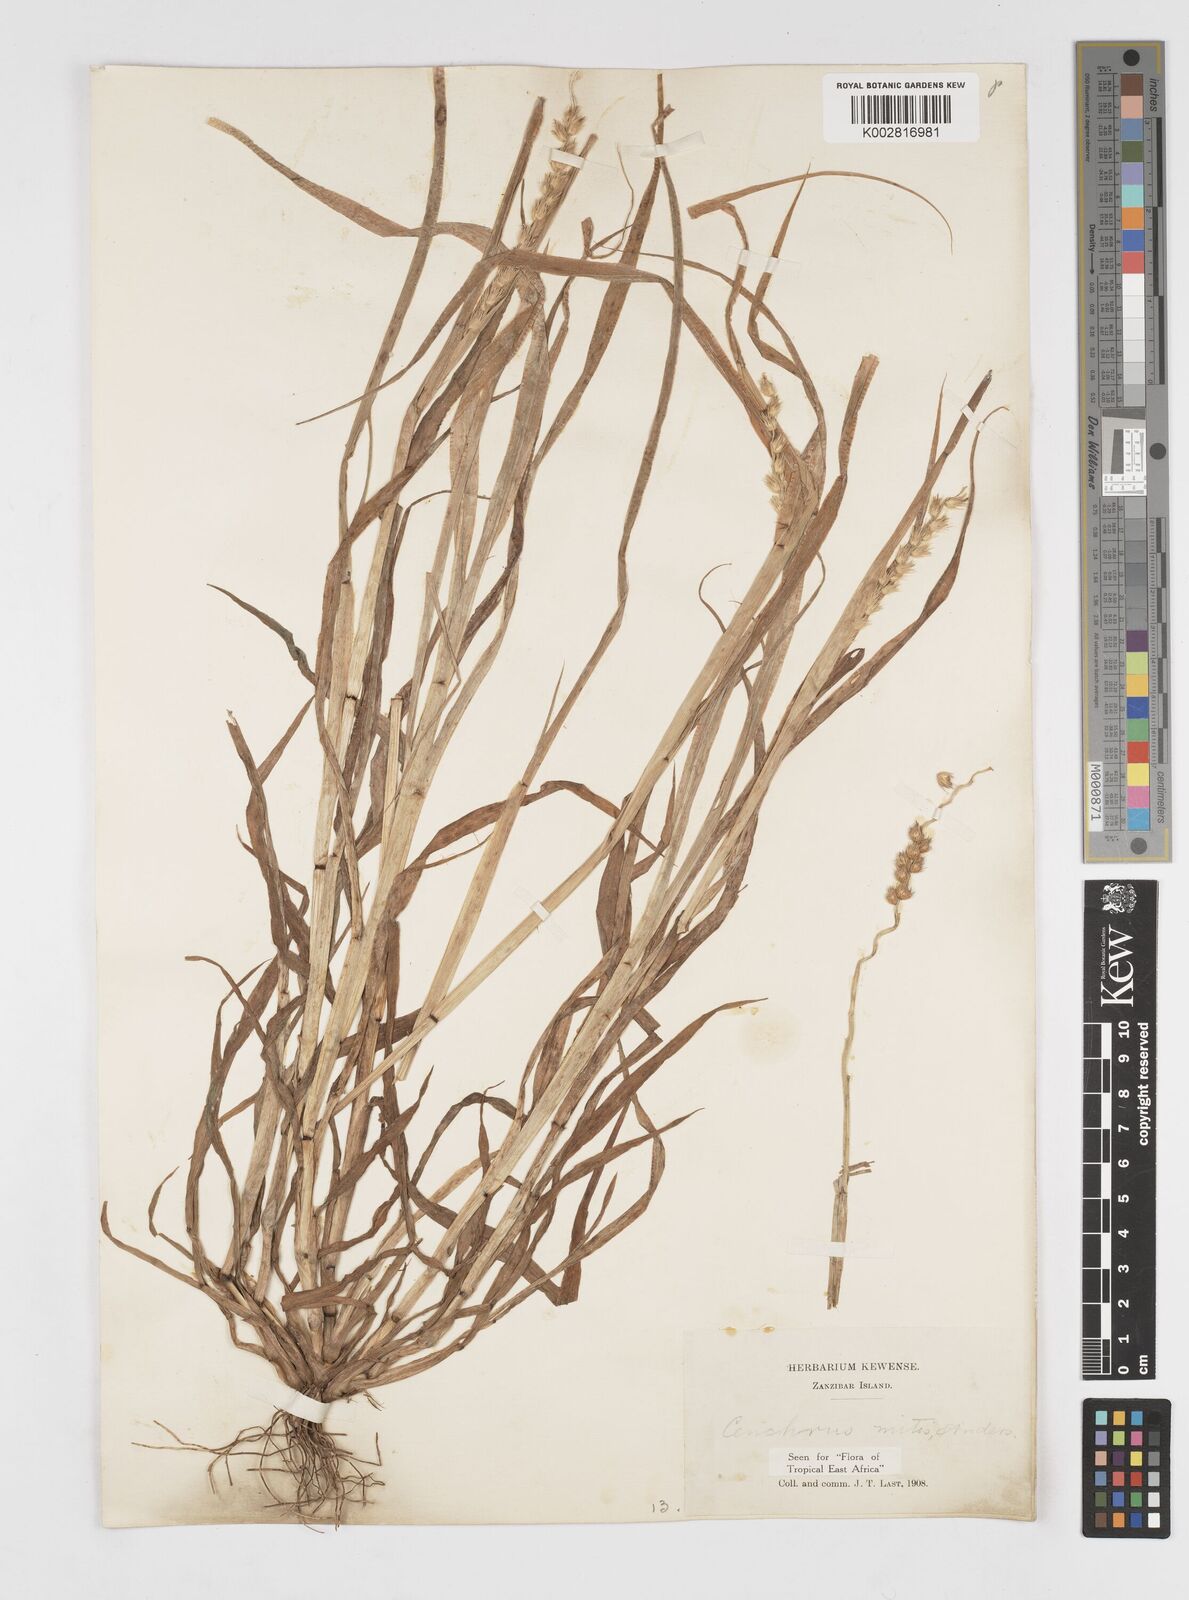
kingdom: Plantae
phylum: Tracheophyta
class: Liliopsida
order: Poales
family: Poaceae
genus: Cenchrus
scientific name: Cenchrus mitis
